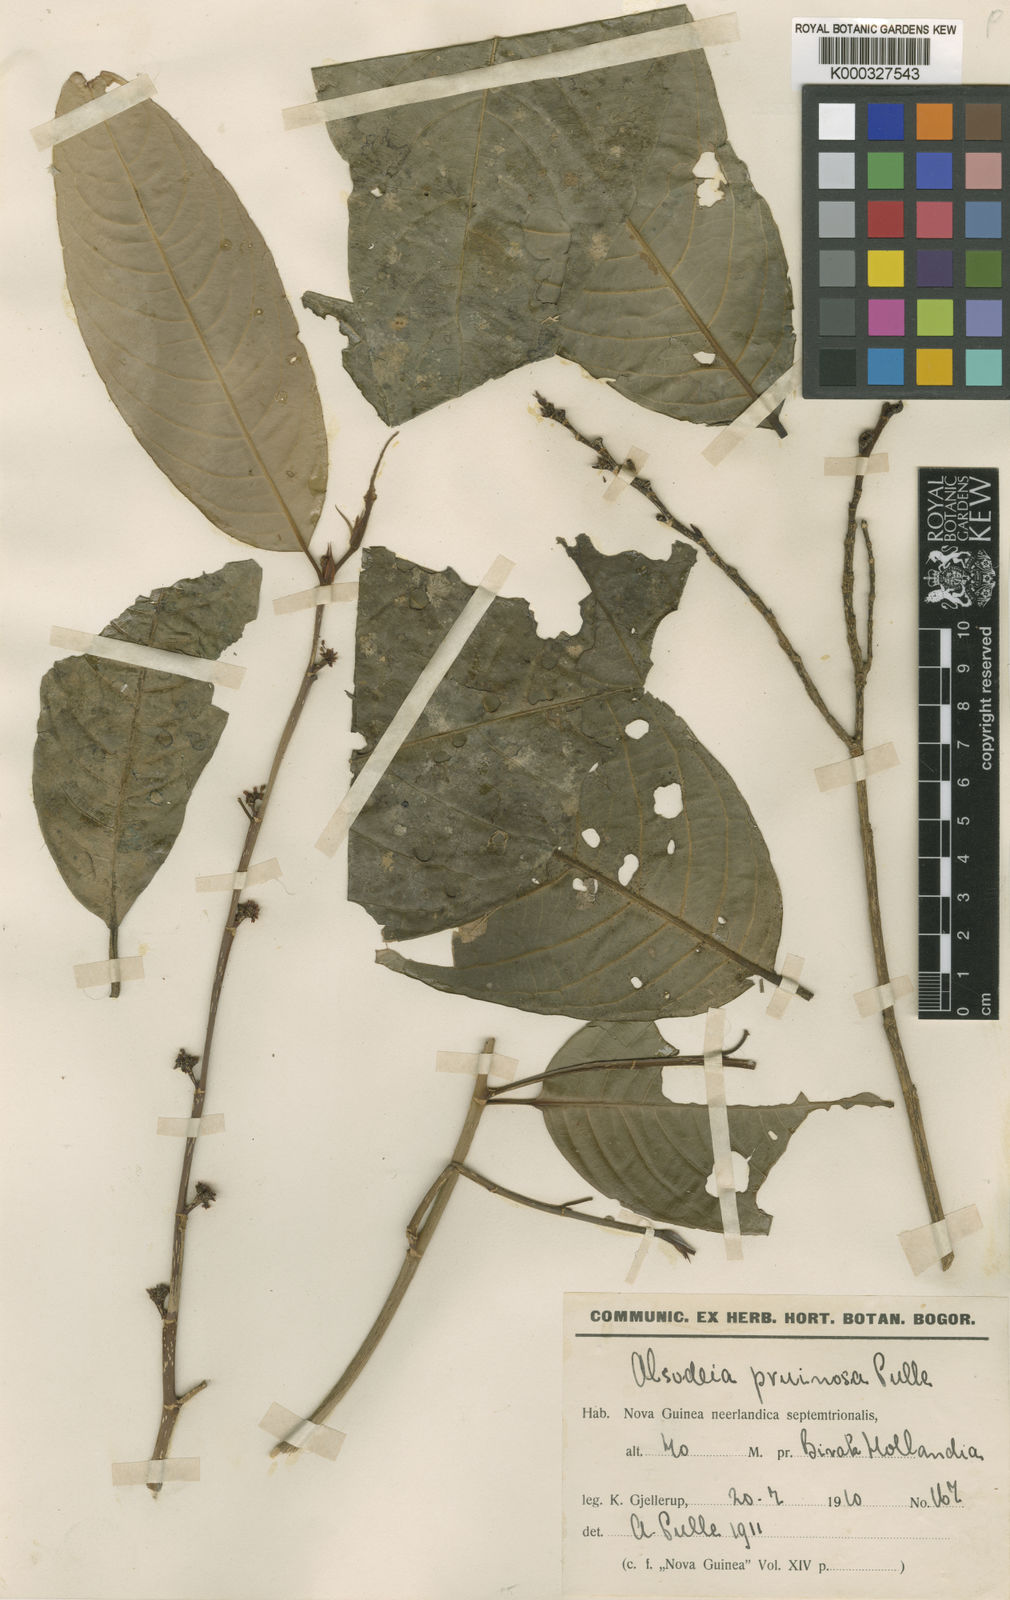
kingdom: Plantae
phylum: Tracheophyta
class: Magnoliopsida
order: Malpighiales
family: Violaceae
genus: Rinorea
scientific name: Rinorea pruinosa
